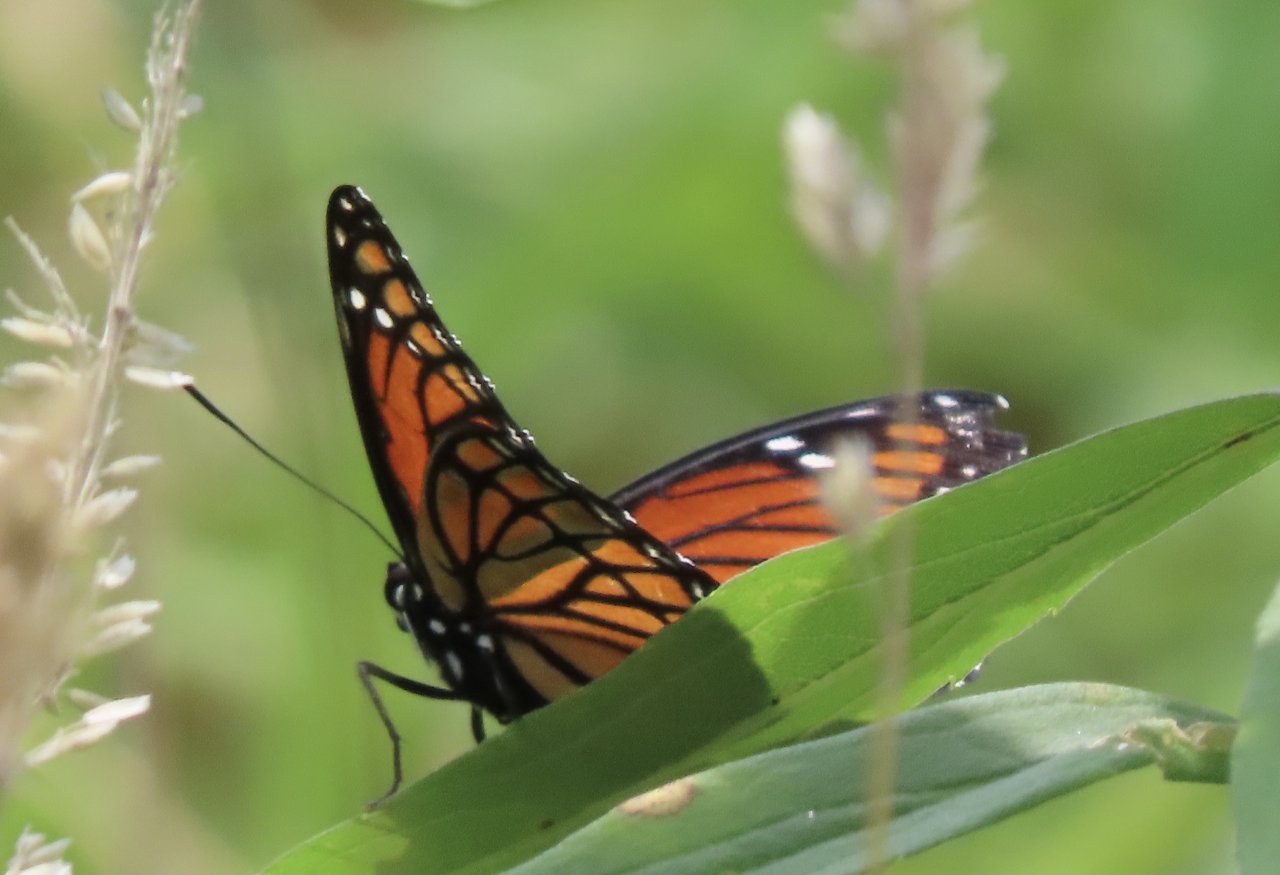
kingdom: Animalia
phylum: Arthropoda
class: Insecta
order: Lepidoptera
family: Nymphalidae
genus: Danaus
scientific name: Danaus plexippus
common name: Monarch
